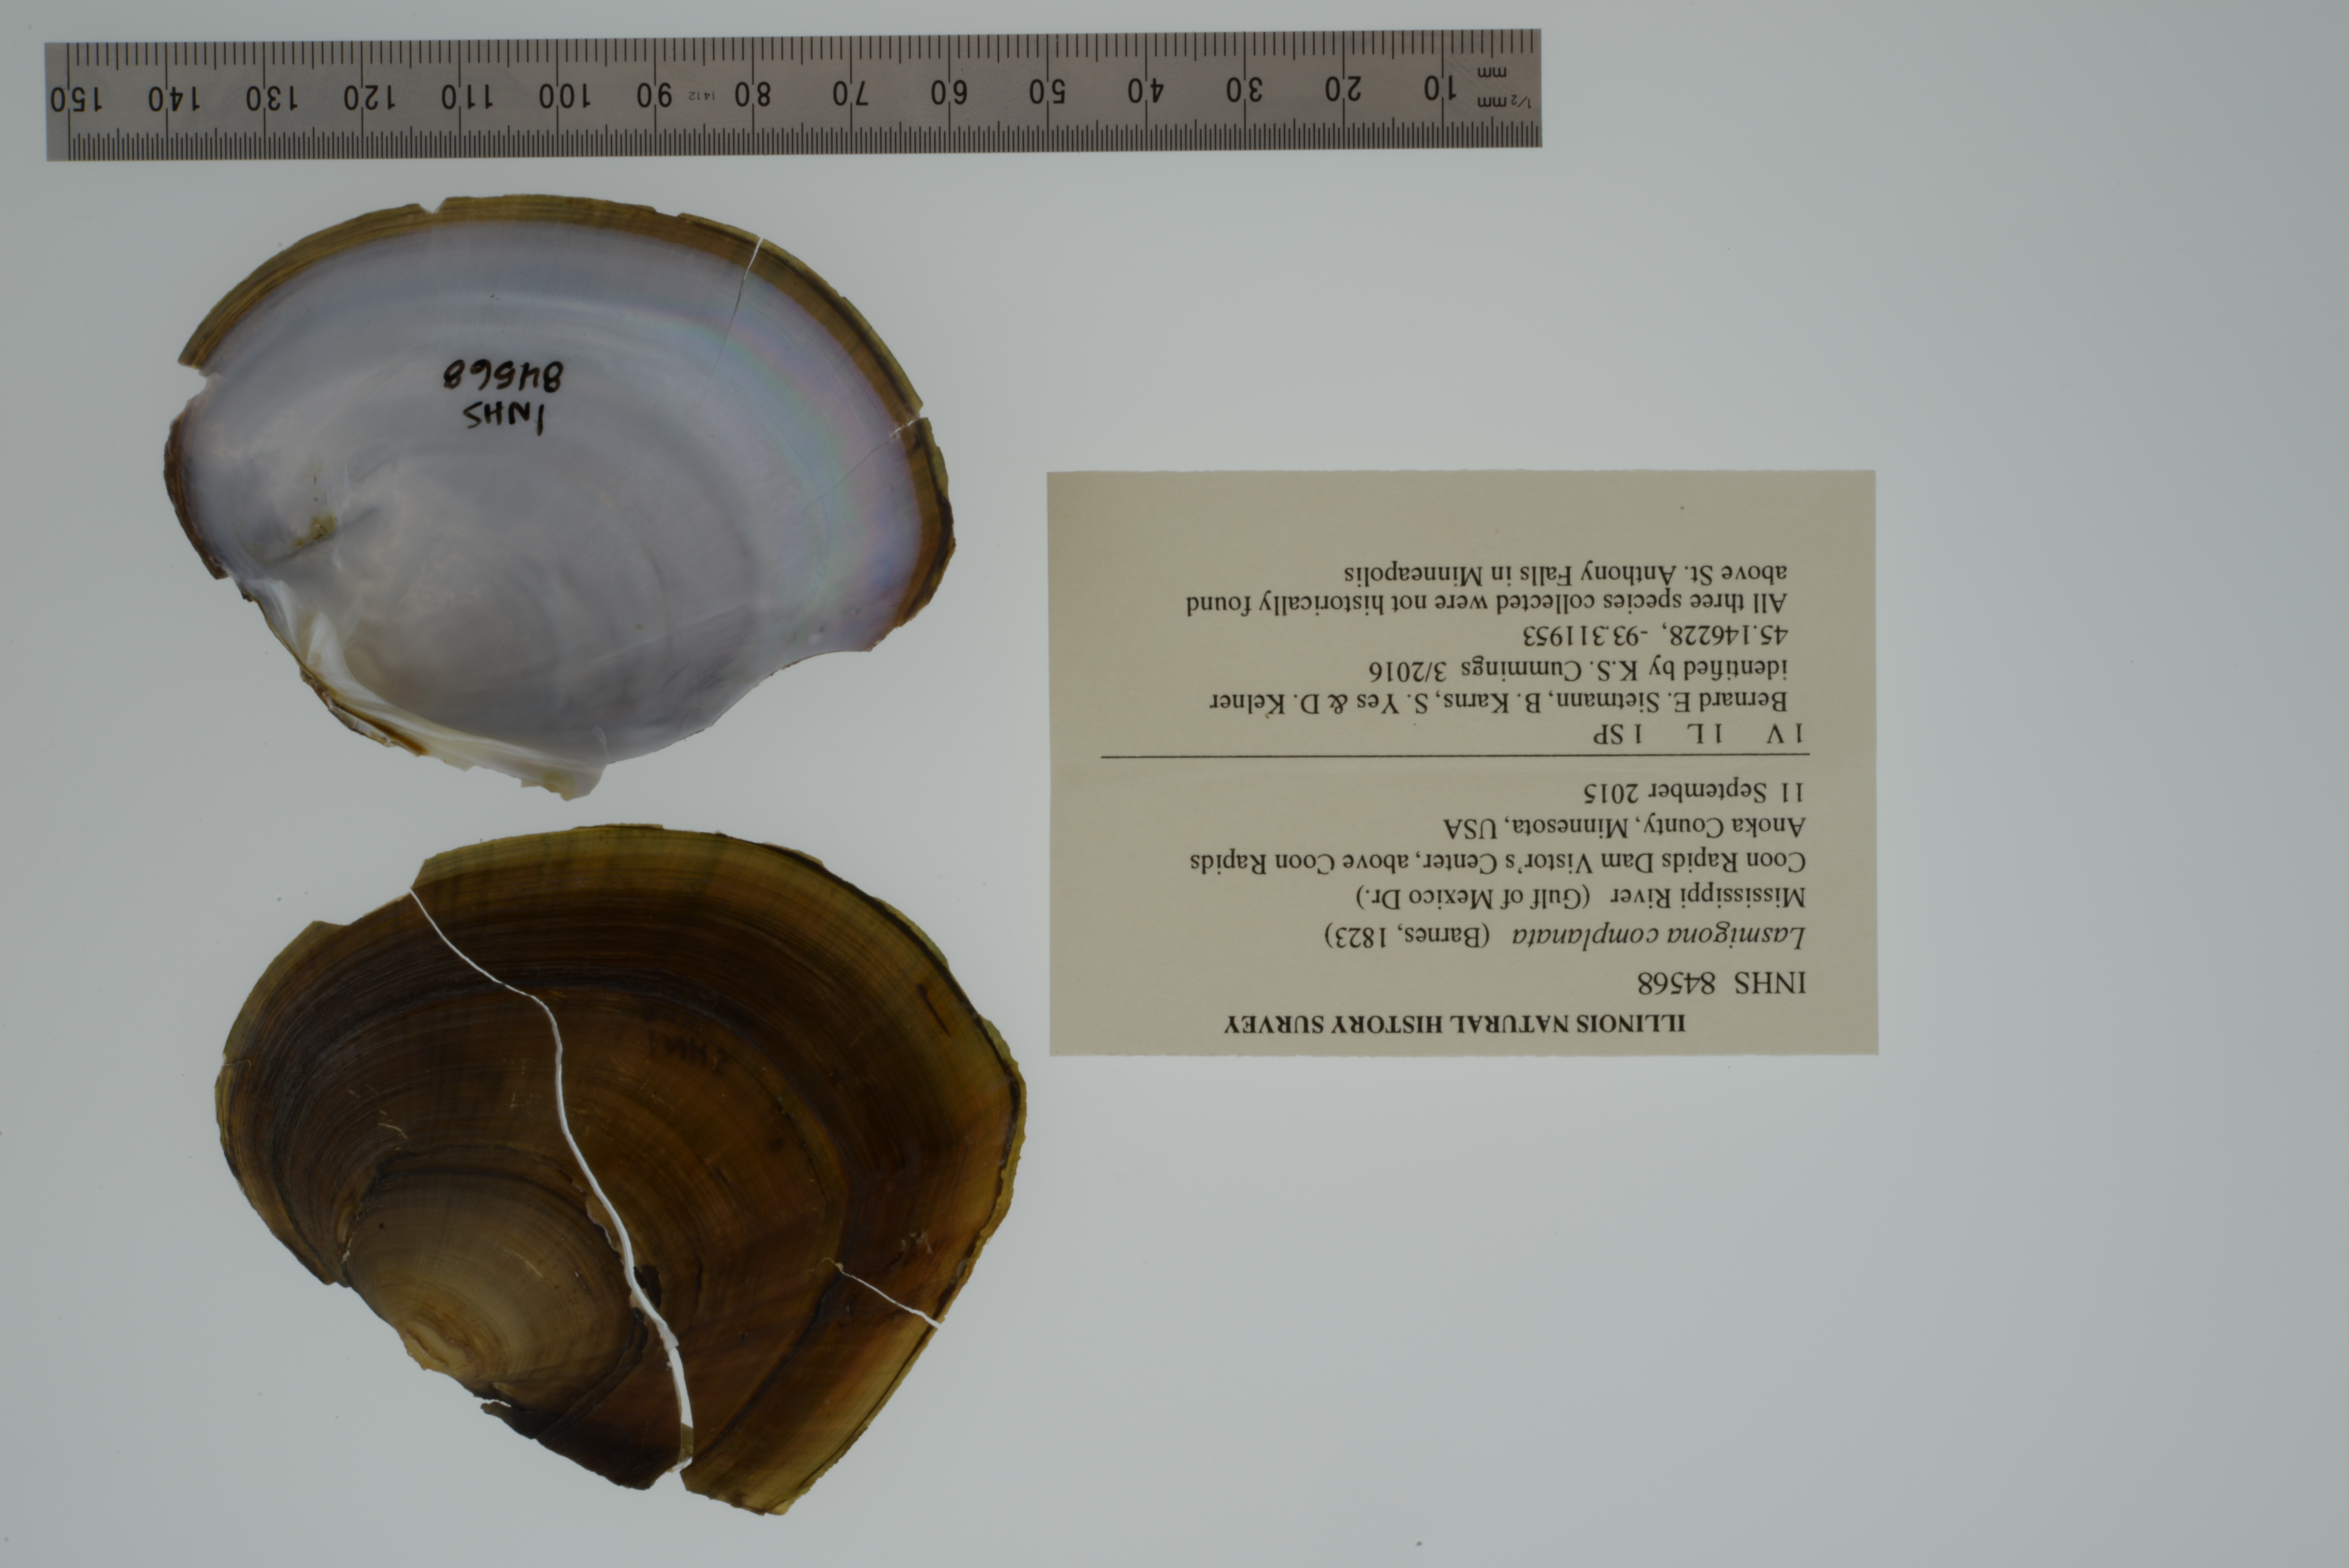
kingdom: Animalia
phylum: Mollusca
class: Bivalvia
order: Unionida
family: Unionidae
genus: Lasmigona
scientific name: Lasmigona complanata
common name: White heelsplitter
